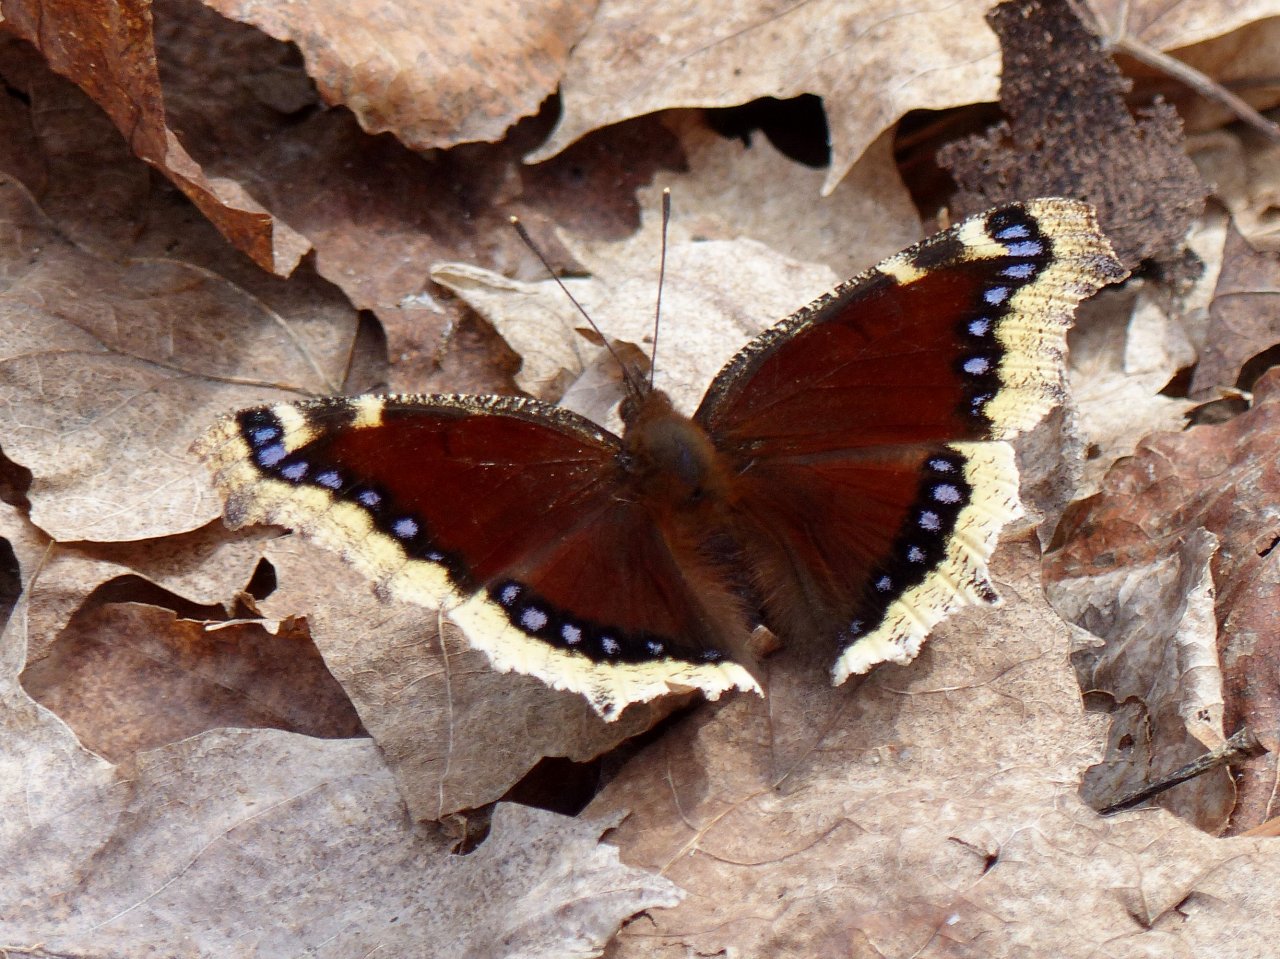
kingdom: Animalia
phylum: Arthropoda
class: Insecta
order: Lepidoptera
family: Nymphalidae
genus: Nymphalis
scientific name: Nymphalis antiopa
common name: Mourning Cloak
